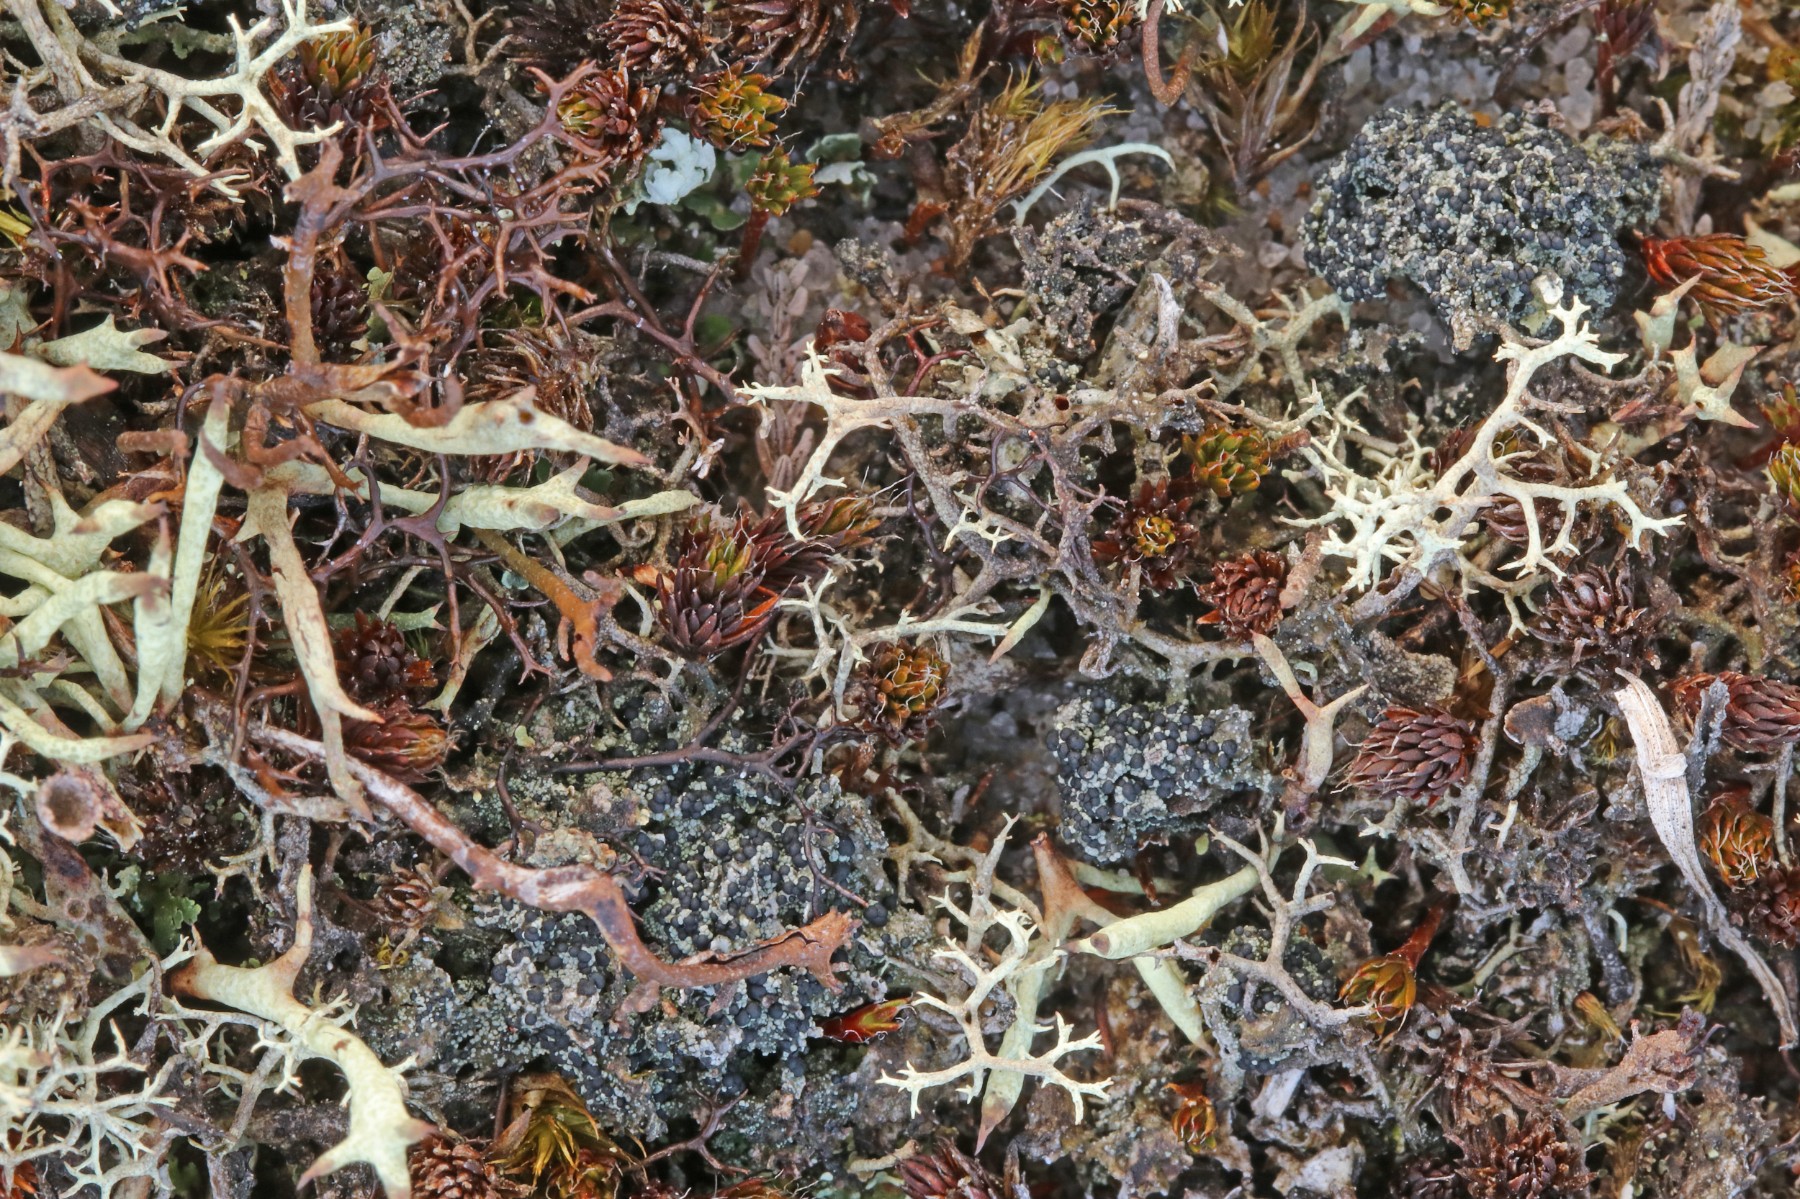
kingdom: Fungi
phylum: Ascomycota
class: Lecanoromycetes
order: Lecanorales
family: Byssolomataceae
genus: Micarea
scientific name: Micarea lignaria
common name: tørve-knaplav
